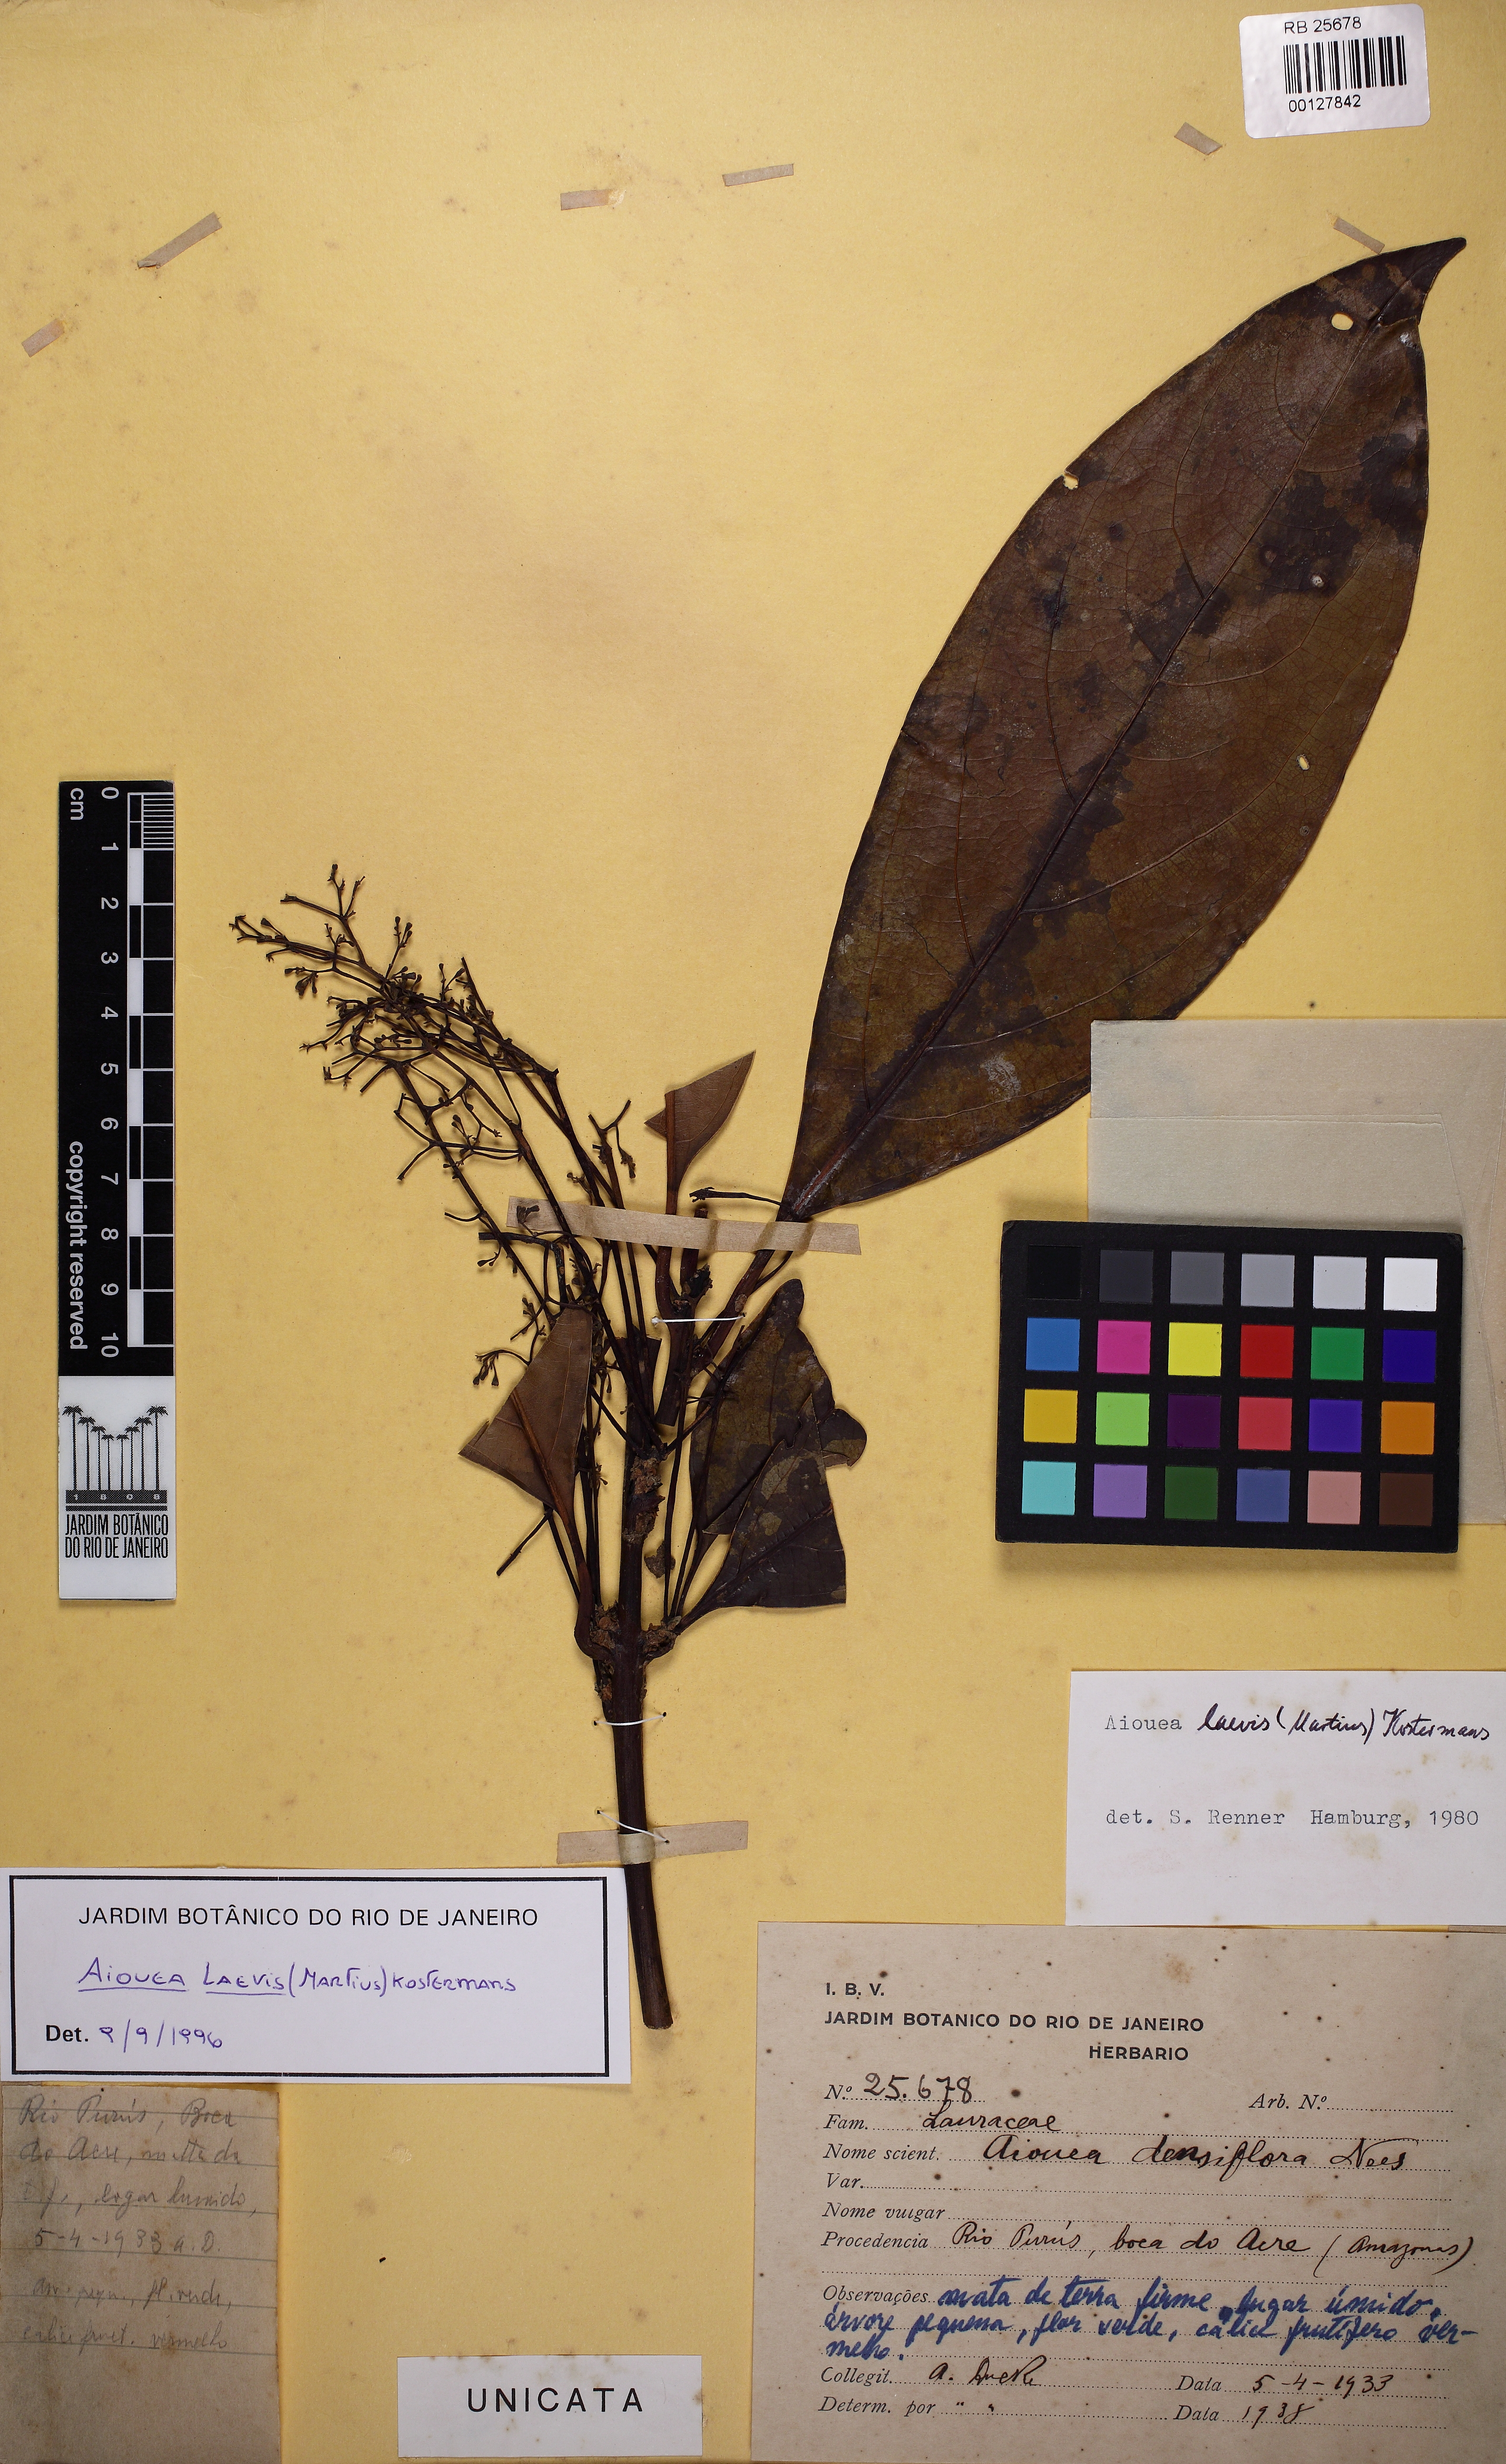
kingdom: Plantae
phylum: Tracheophyta
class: Magnoliopsida
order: Laurales
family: Lauraceae
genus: Aiouea
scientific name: Aiouea laevis
